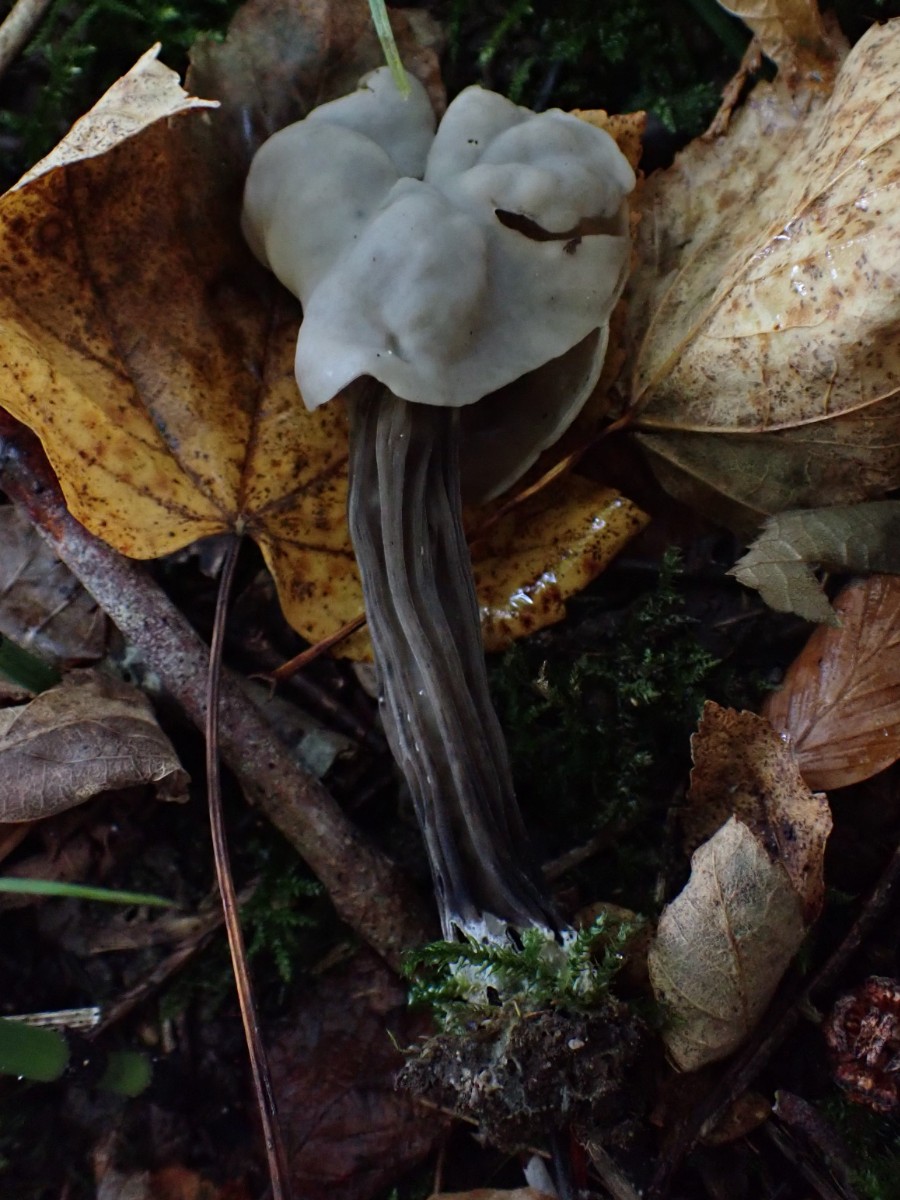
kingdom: Fungi
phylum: Ascomycota
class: Pezizomycetes
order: Pezizales
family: Helvellaceae
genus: Helvella
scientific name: Helvella lacunosa
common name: grubet foldhat
